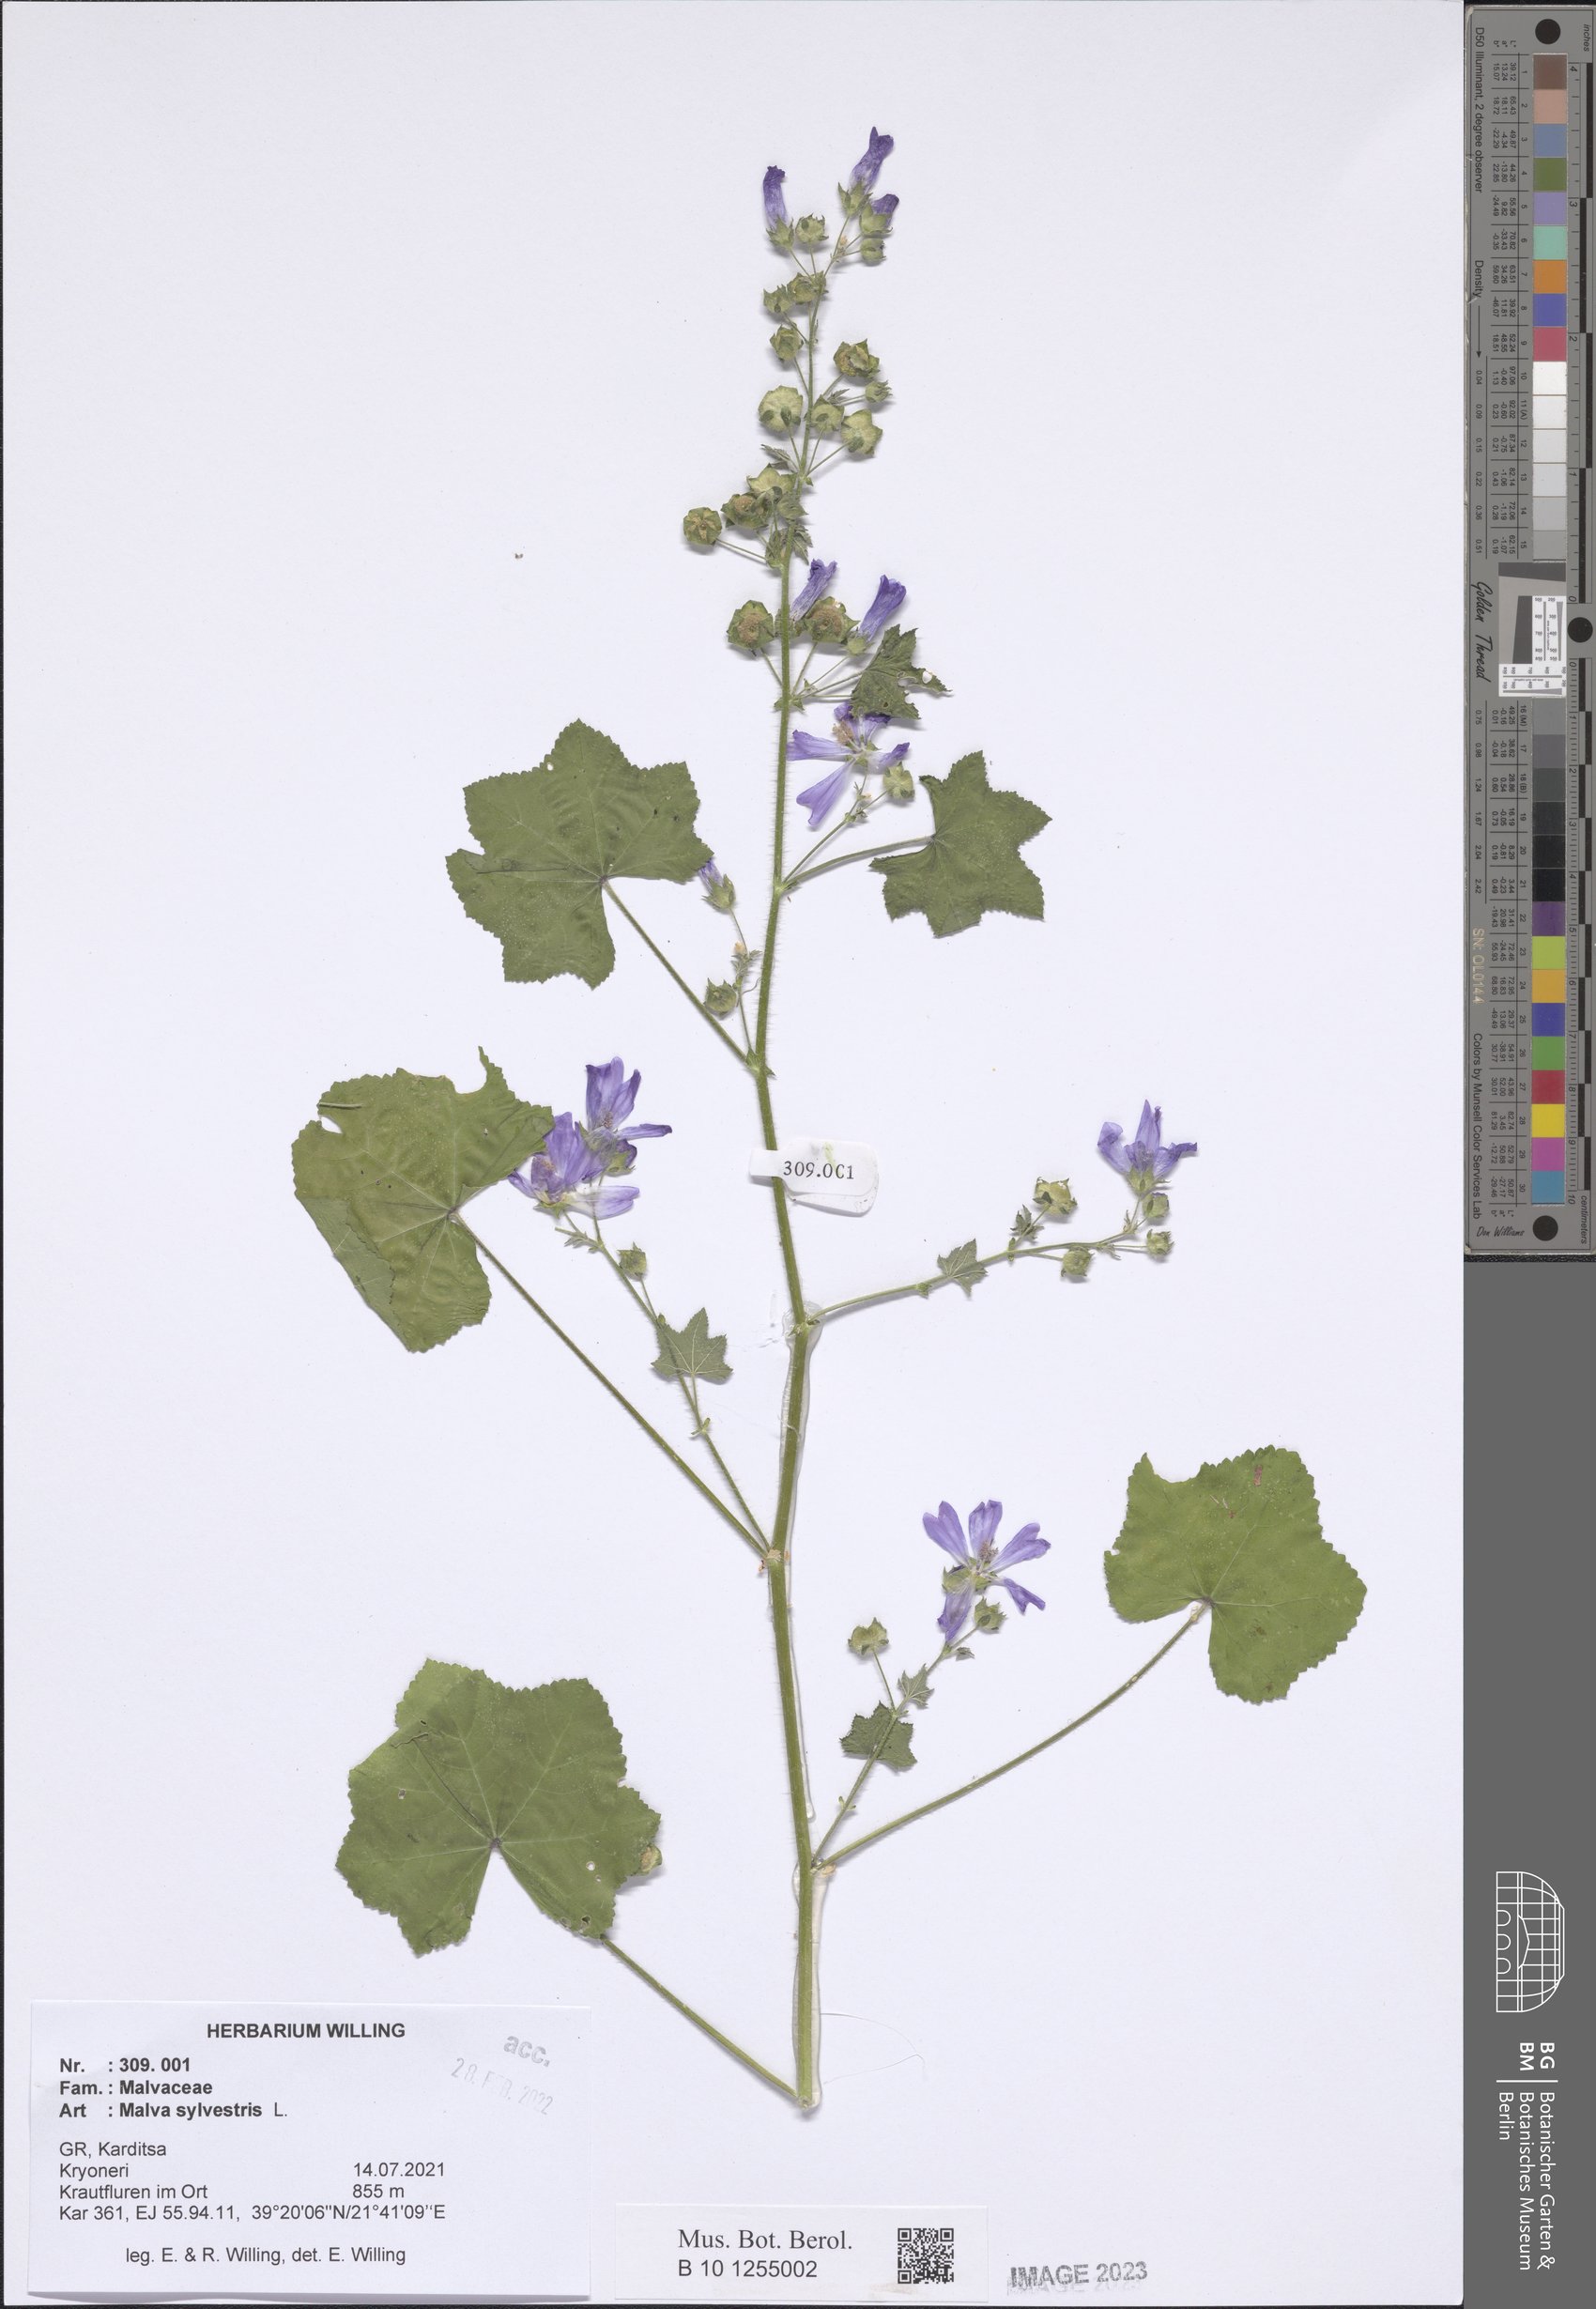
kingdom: Plantae
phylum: Tracheophyta
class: Magnoliopsida
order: Malvales
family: Malvaceae
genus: Malva
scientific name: Malva sylvestris
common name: Common mallow
